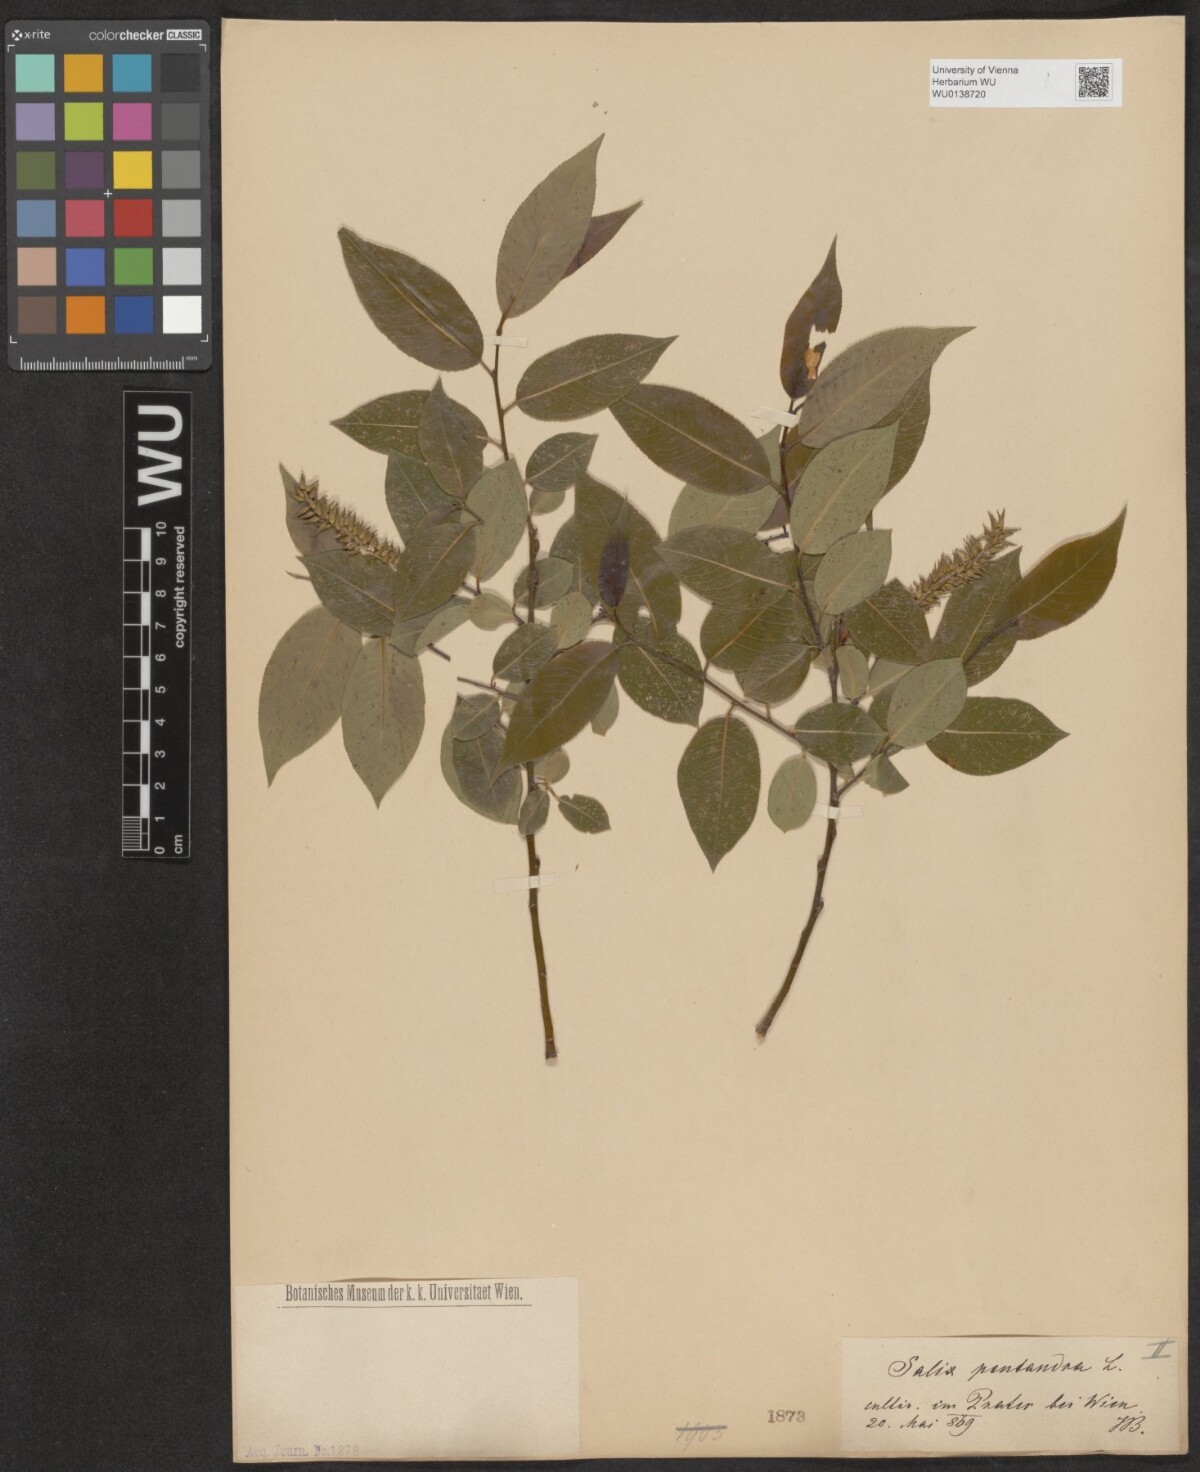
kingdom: Plantae
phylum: Tracheophyta
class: Magnoliopsida
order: Malpighiales
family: Salicaceae
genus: Salix
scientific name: Salix pentandra
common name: Bay willow
